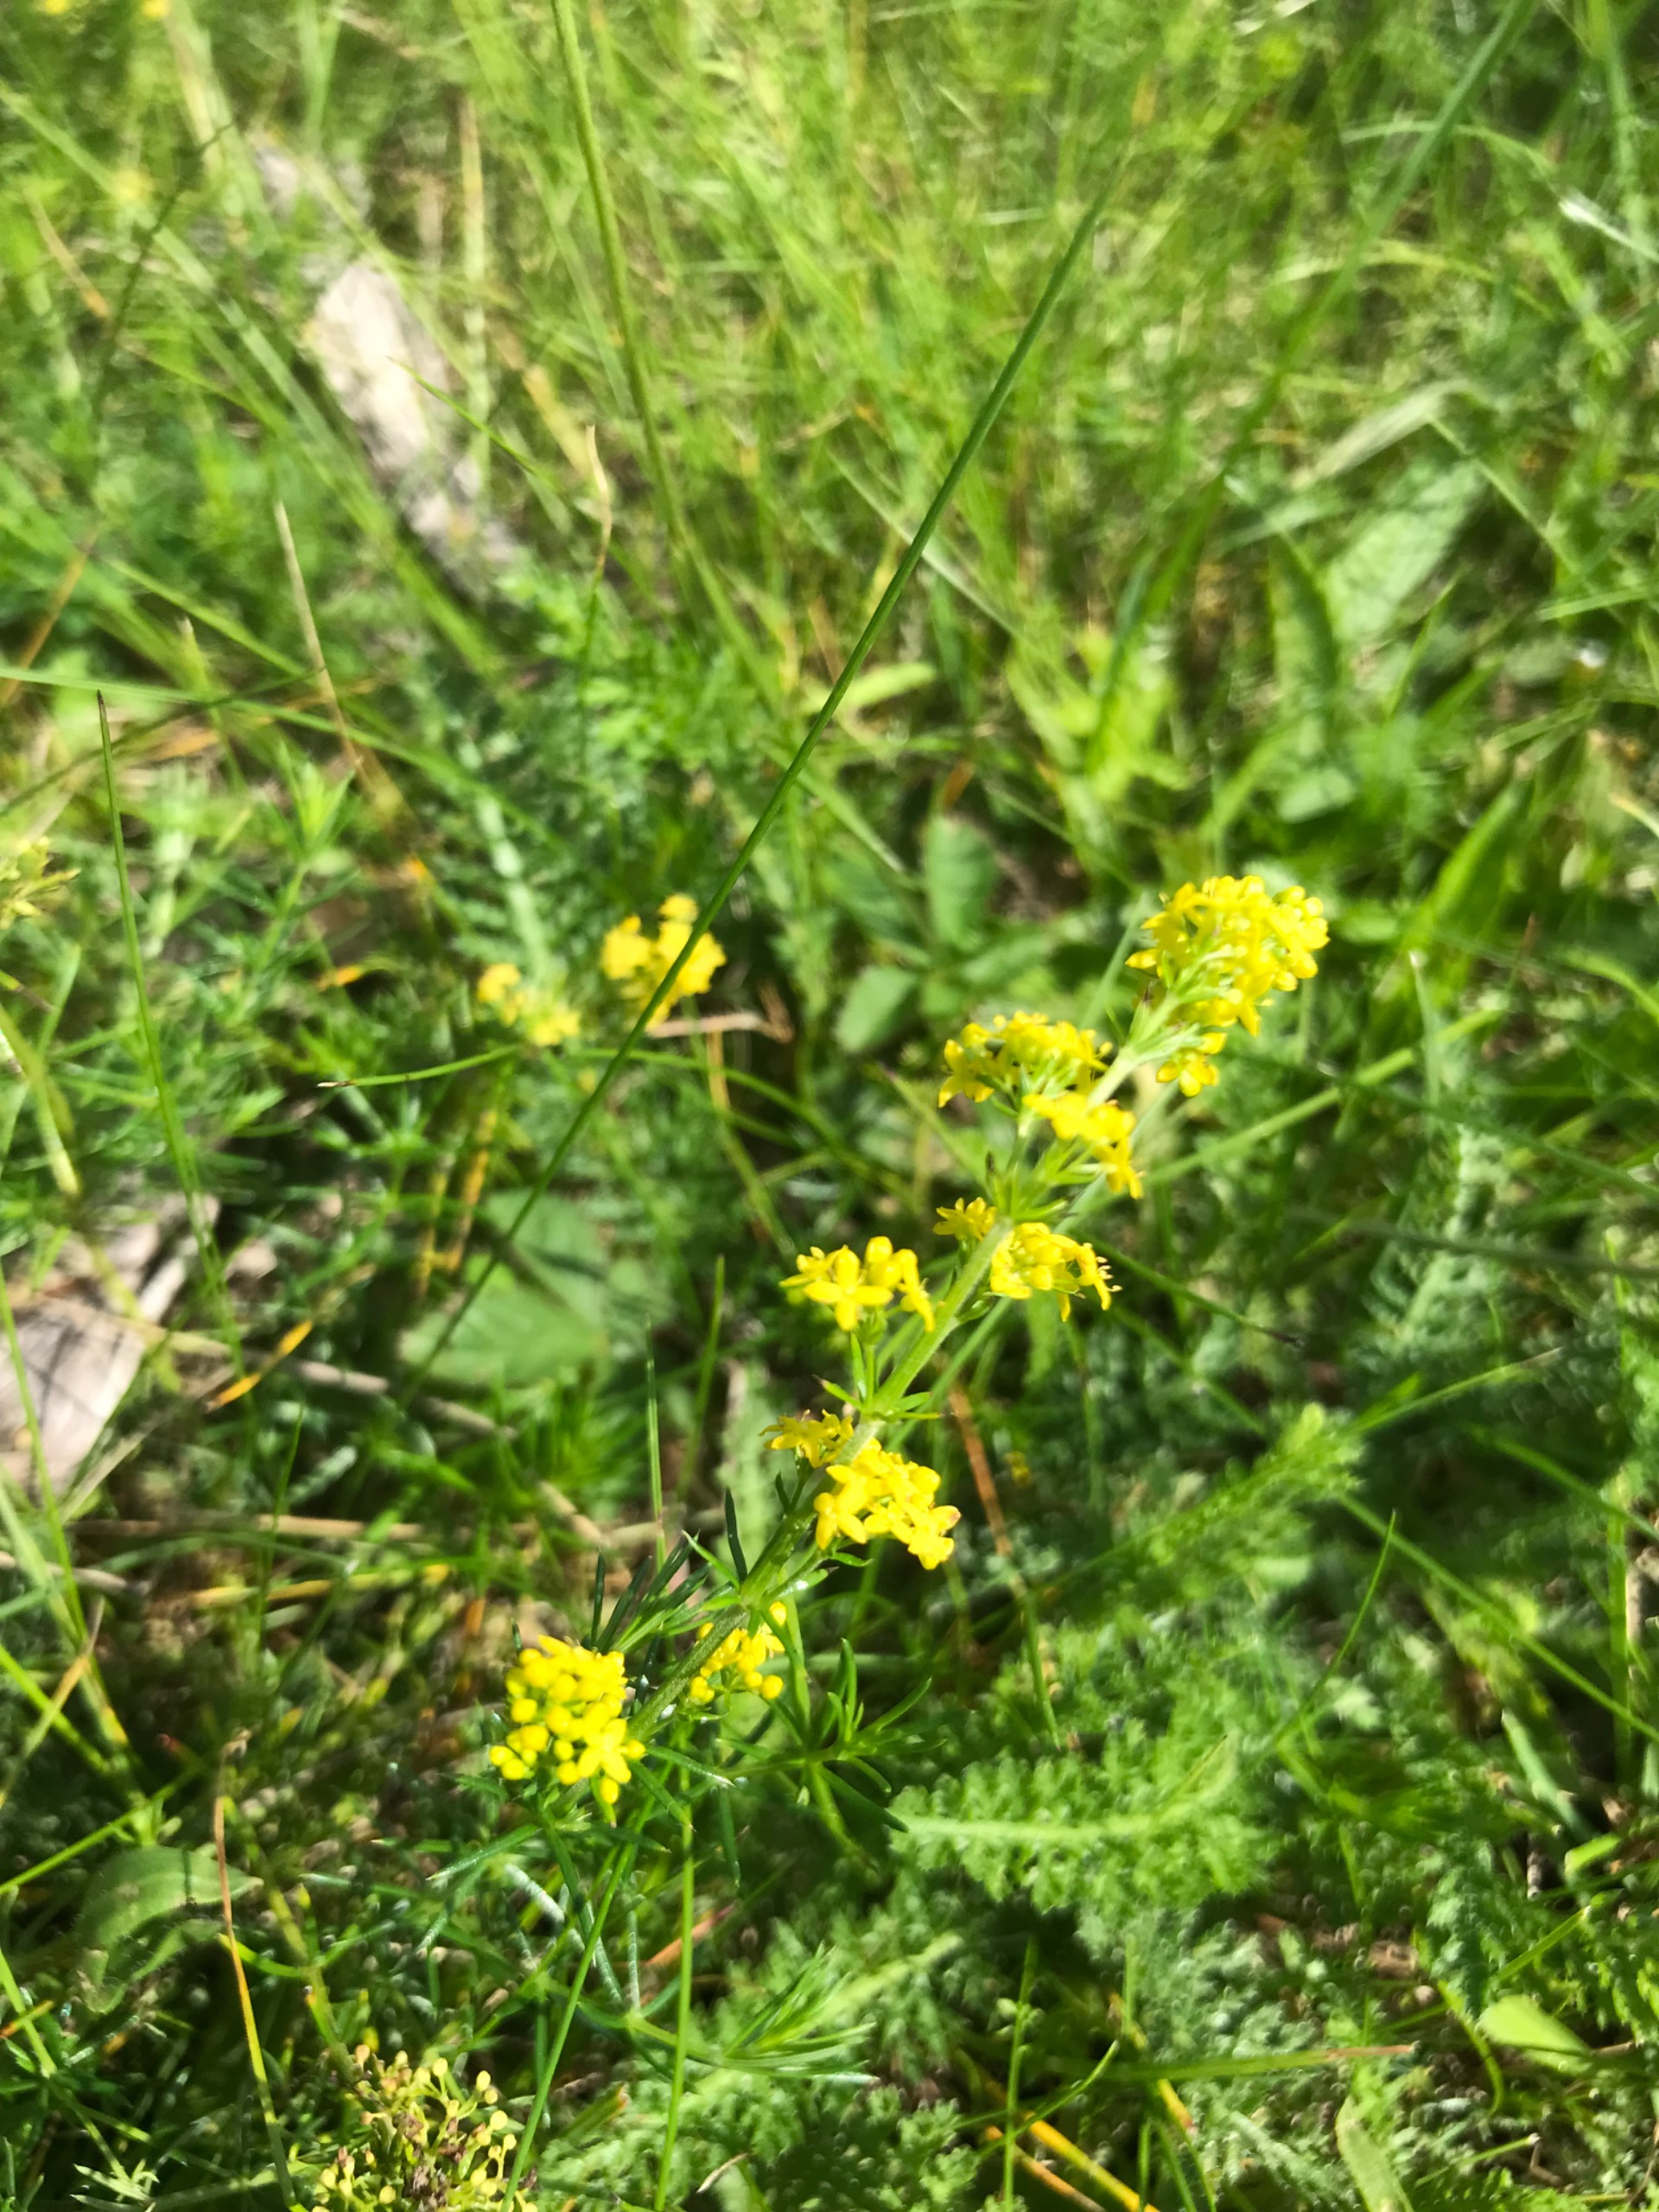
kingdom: Plantae
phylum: Tracheophyta
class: Magnoliopsida
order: Gentianales
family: Rubiaceae
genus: Galium
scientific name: Galium verum
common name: Gul snerre
